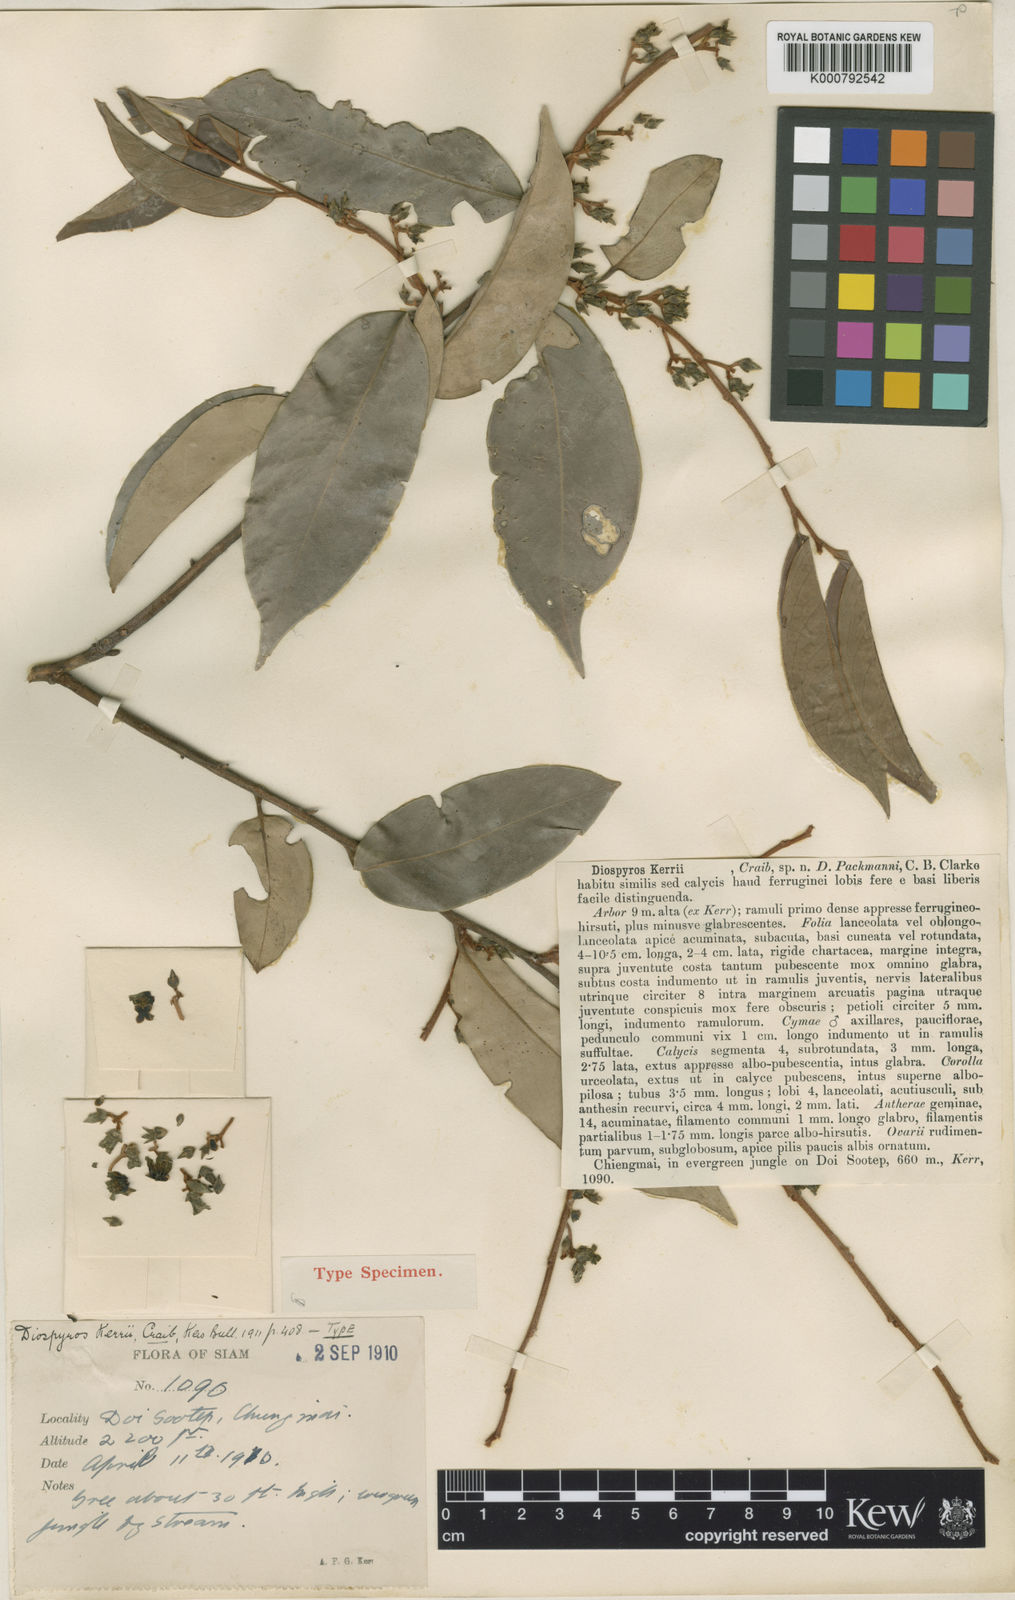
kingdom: Plantae
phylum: Tracheophyta
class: Magnoliopsida
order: Ericales
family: Ebenaceae
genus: Diospyros
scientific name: Diospyros kerrii
